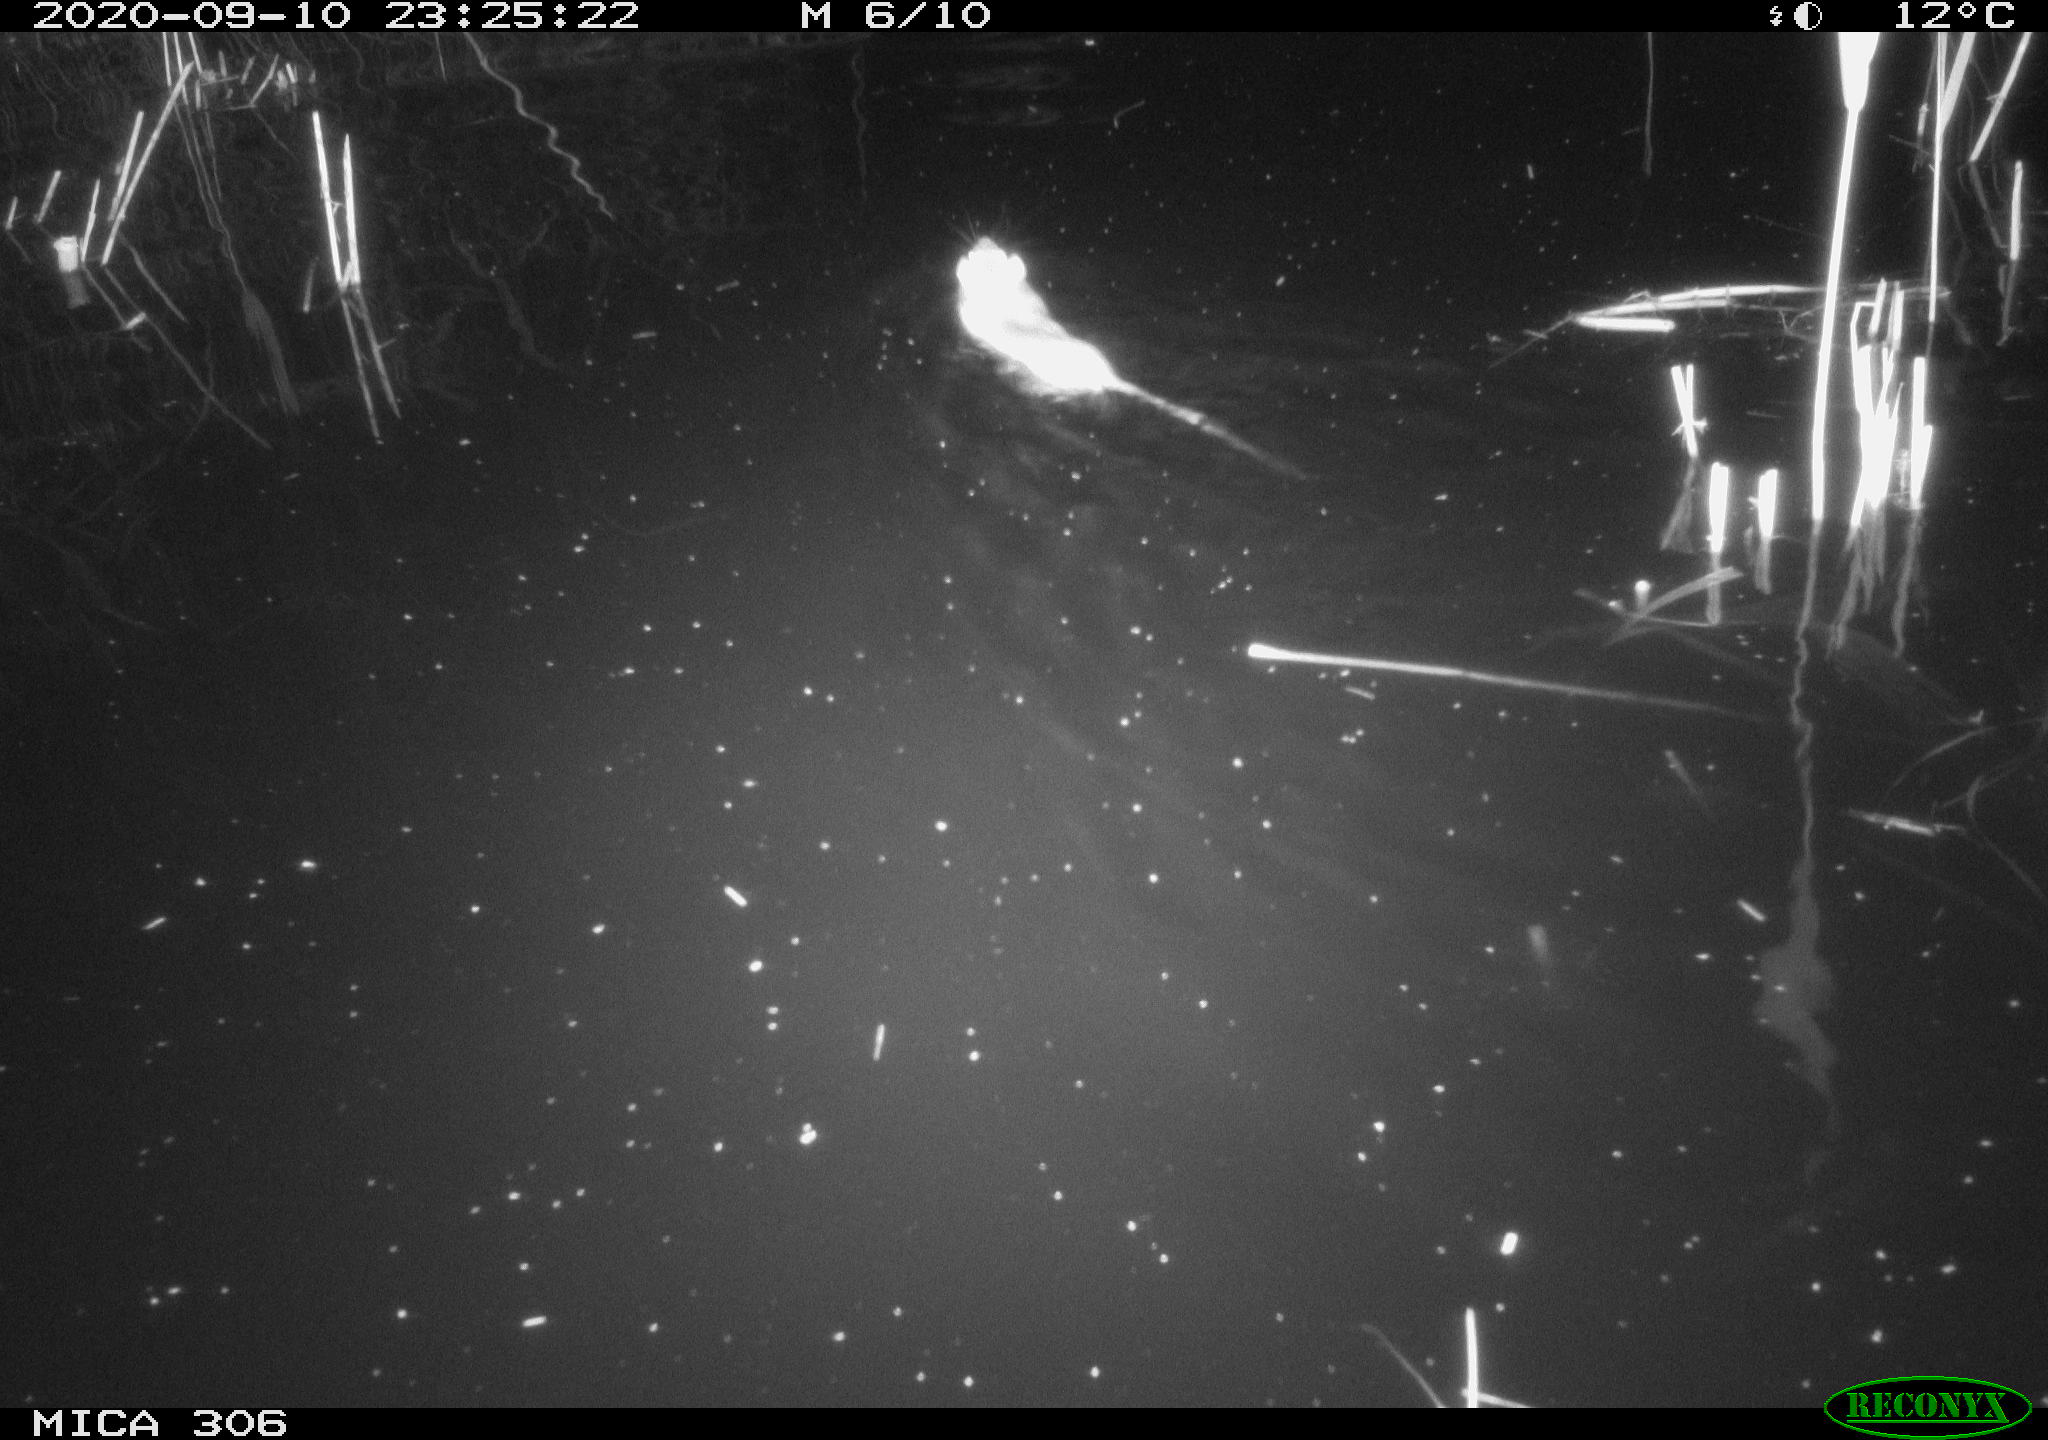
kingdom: Animalia
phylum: Chordata
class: Mammalia
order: Rodentia
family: Muridae
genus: Rattus
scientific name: Rattus norvegicus
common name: Brown rat
